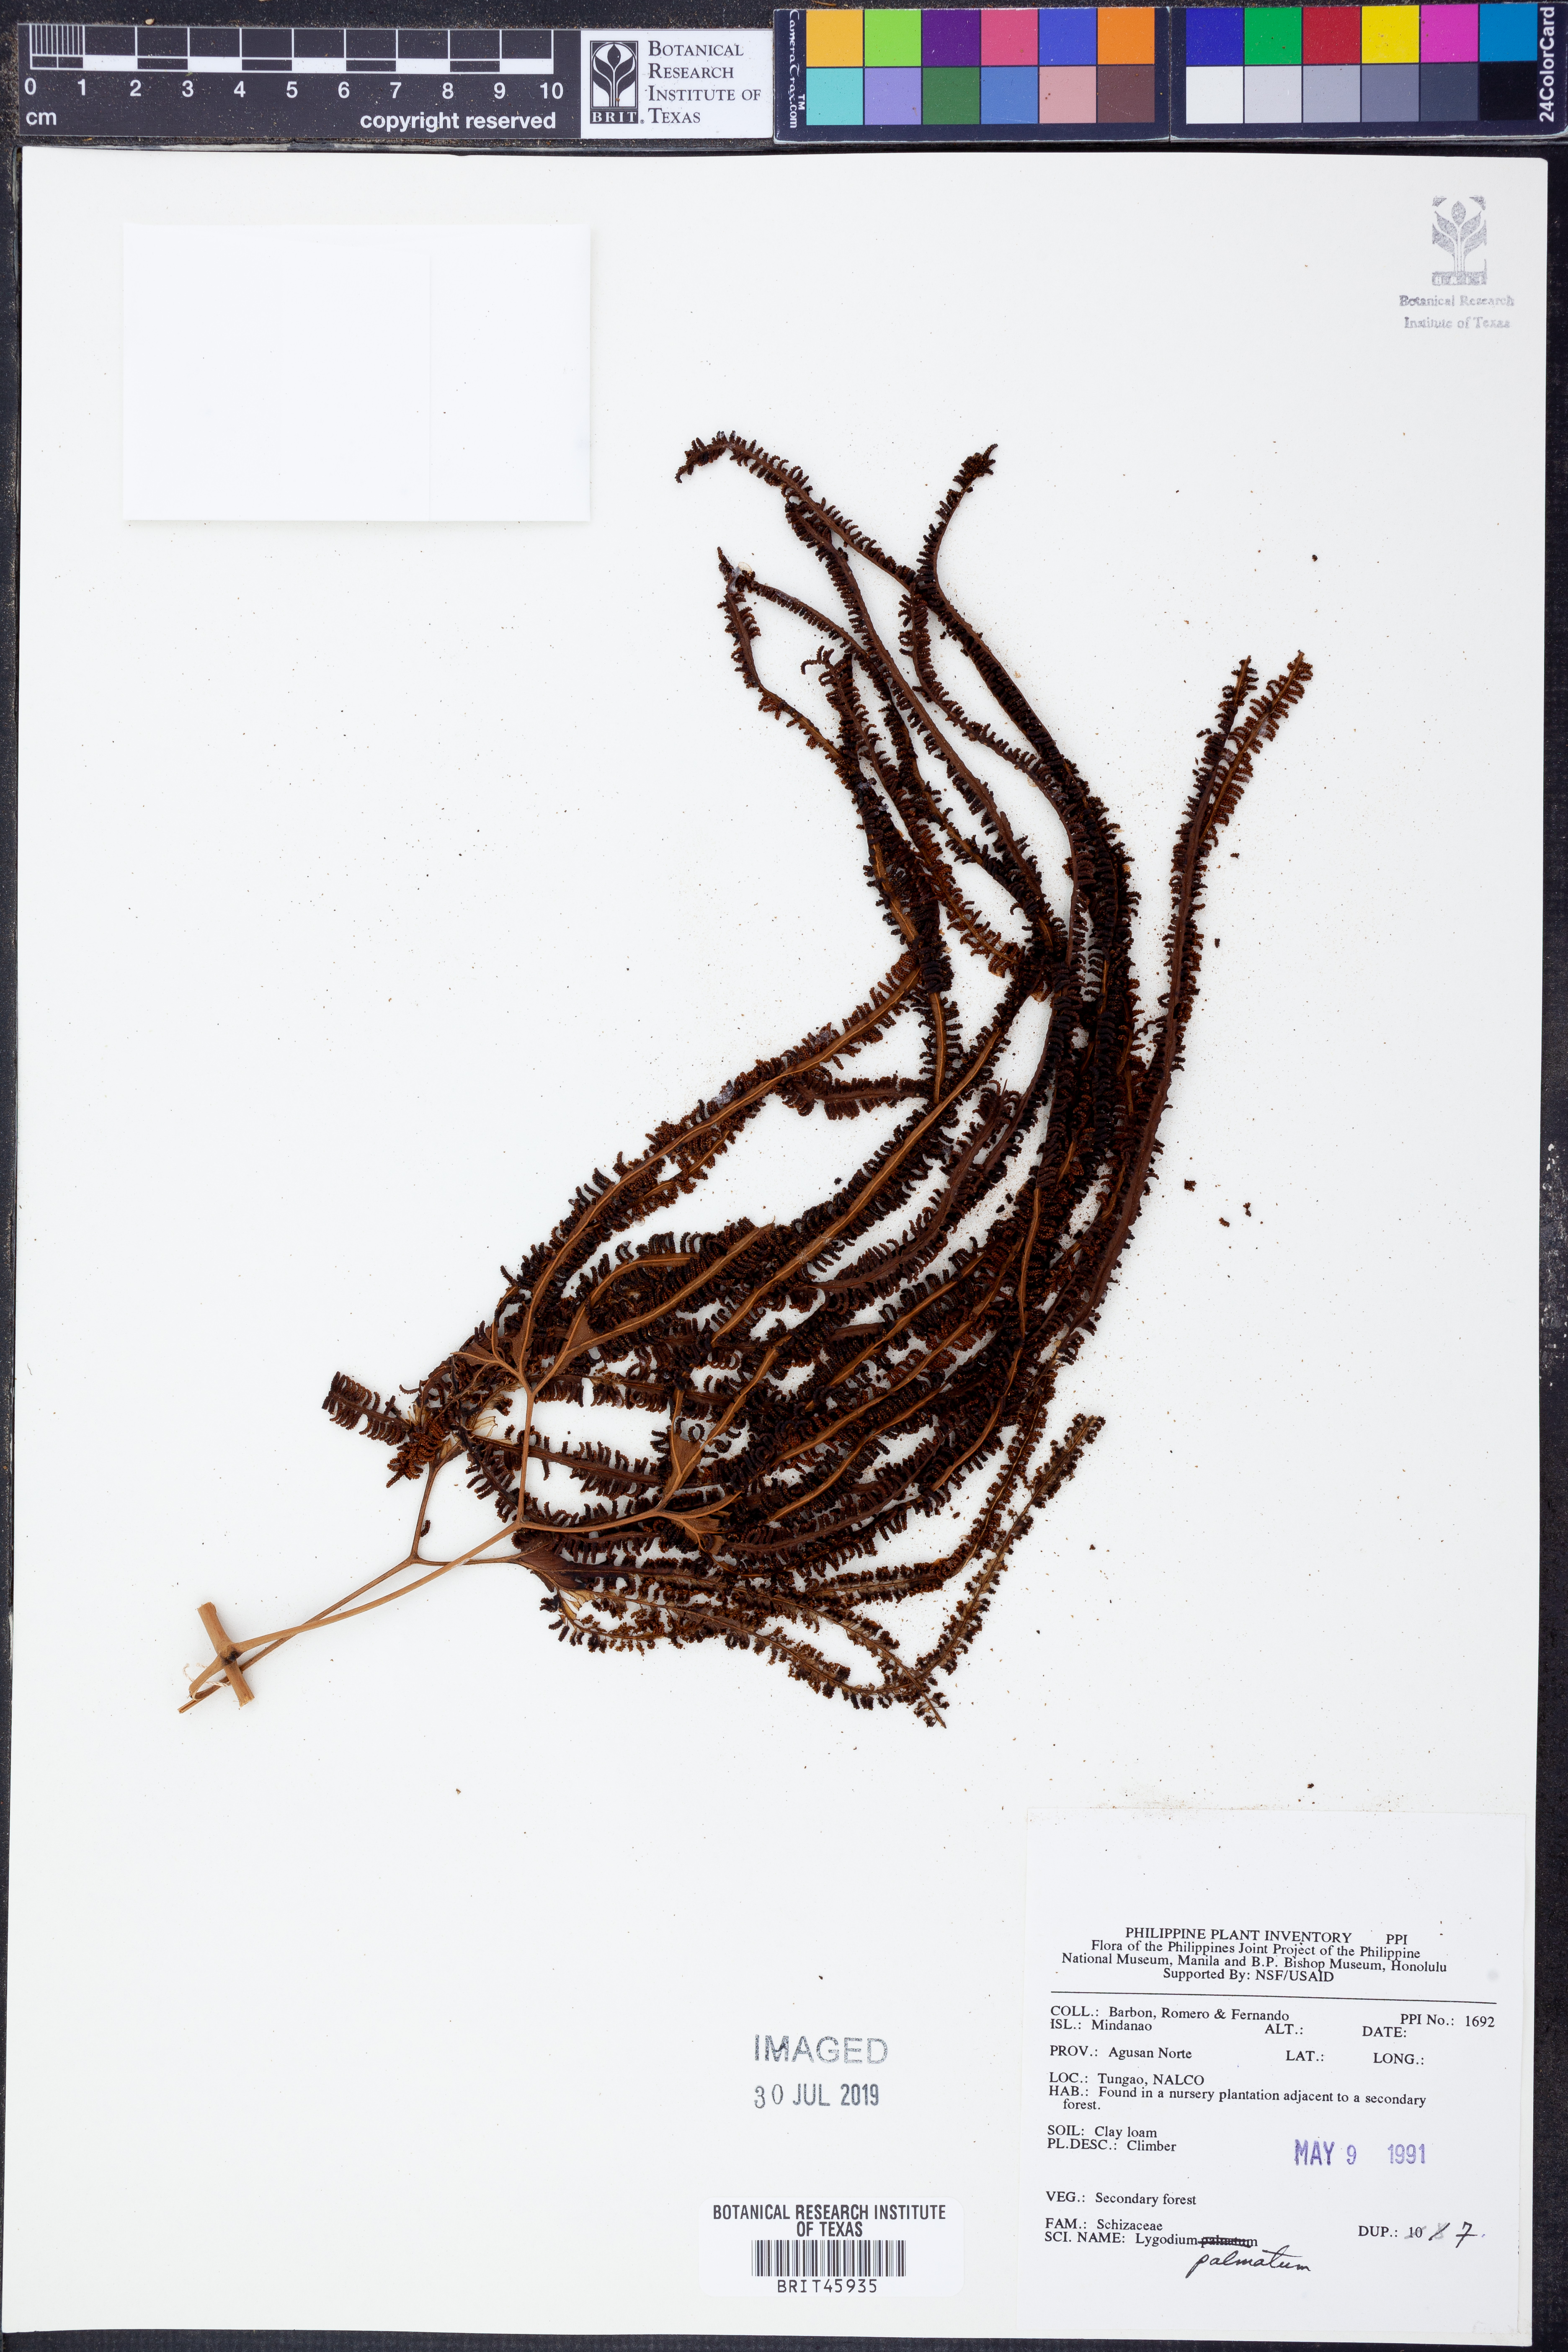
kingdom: Plantae
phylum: Tracheophyta
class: Polypodiopsida
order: Schizaeales
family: Lygodiaceae
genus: Lygodium
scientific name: Lygodium palmatum
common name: American climbing fern
